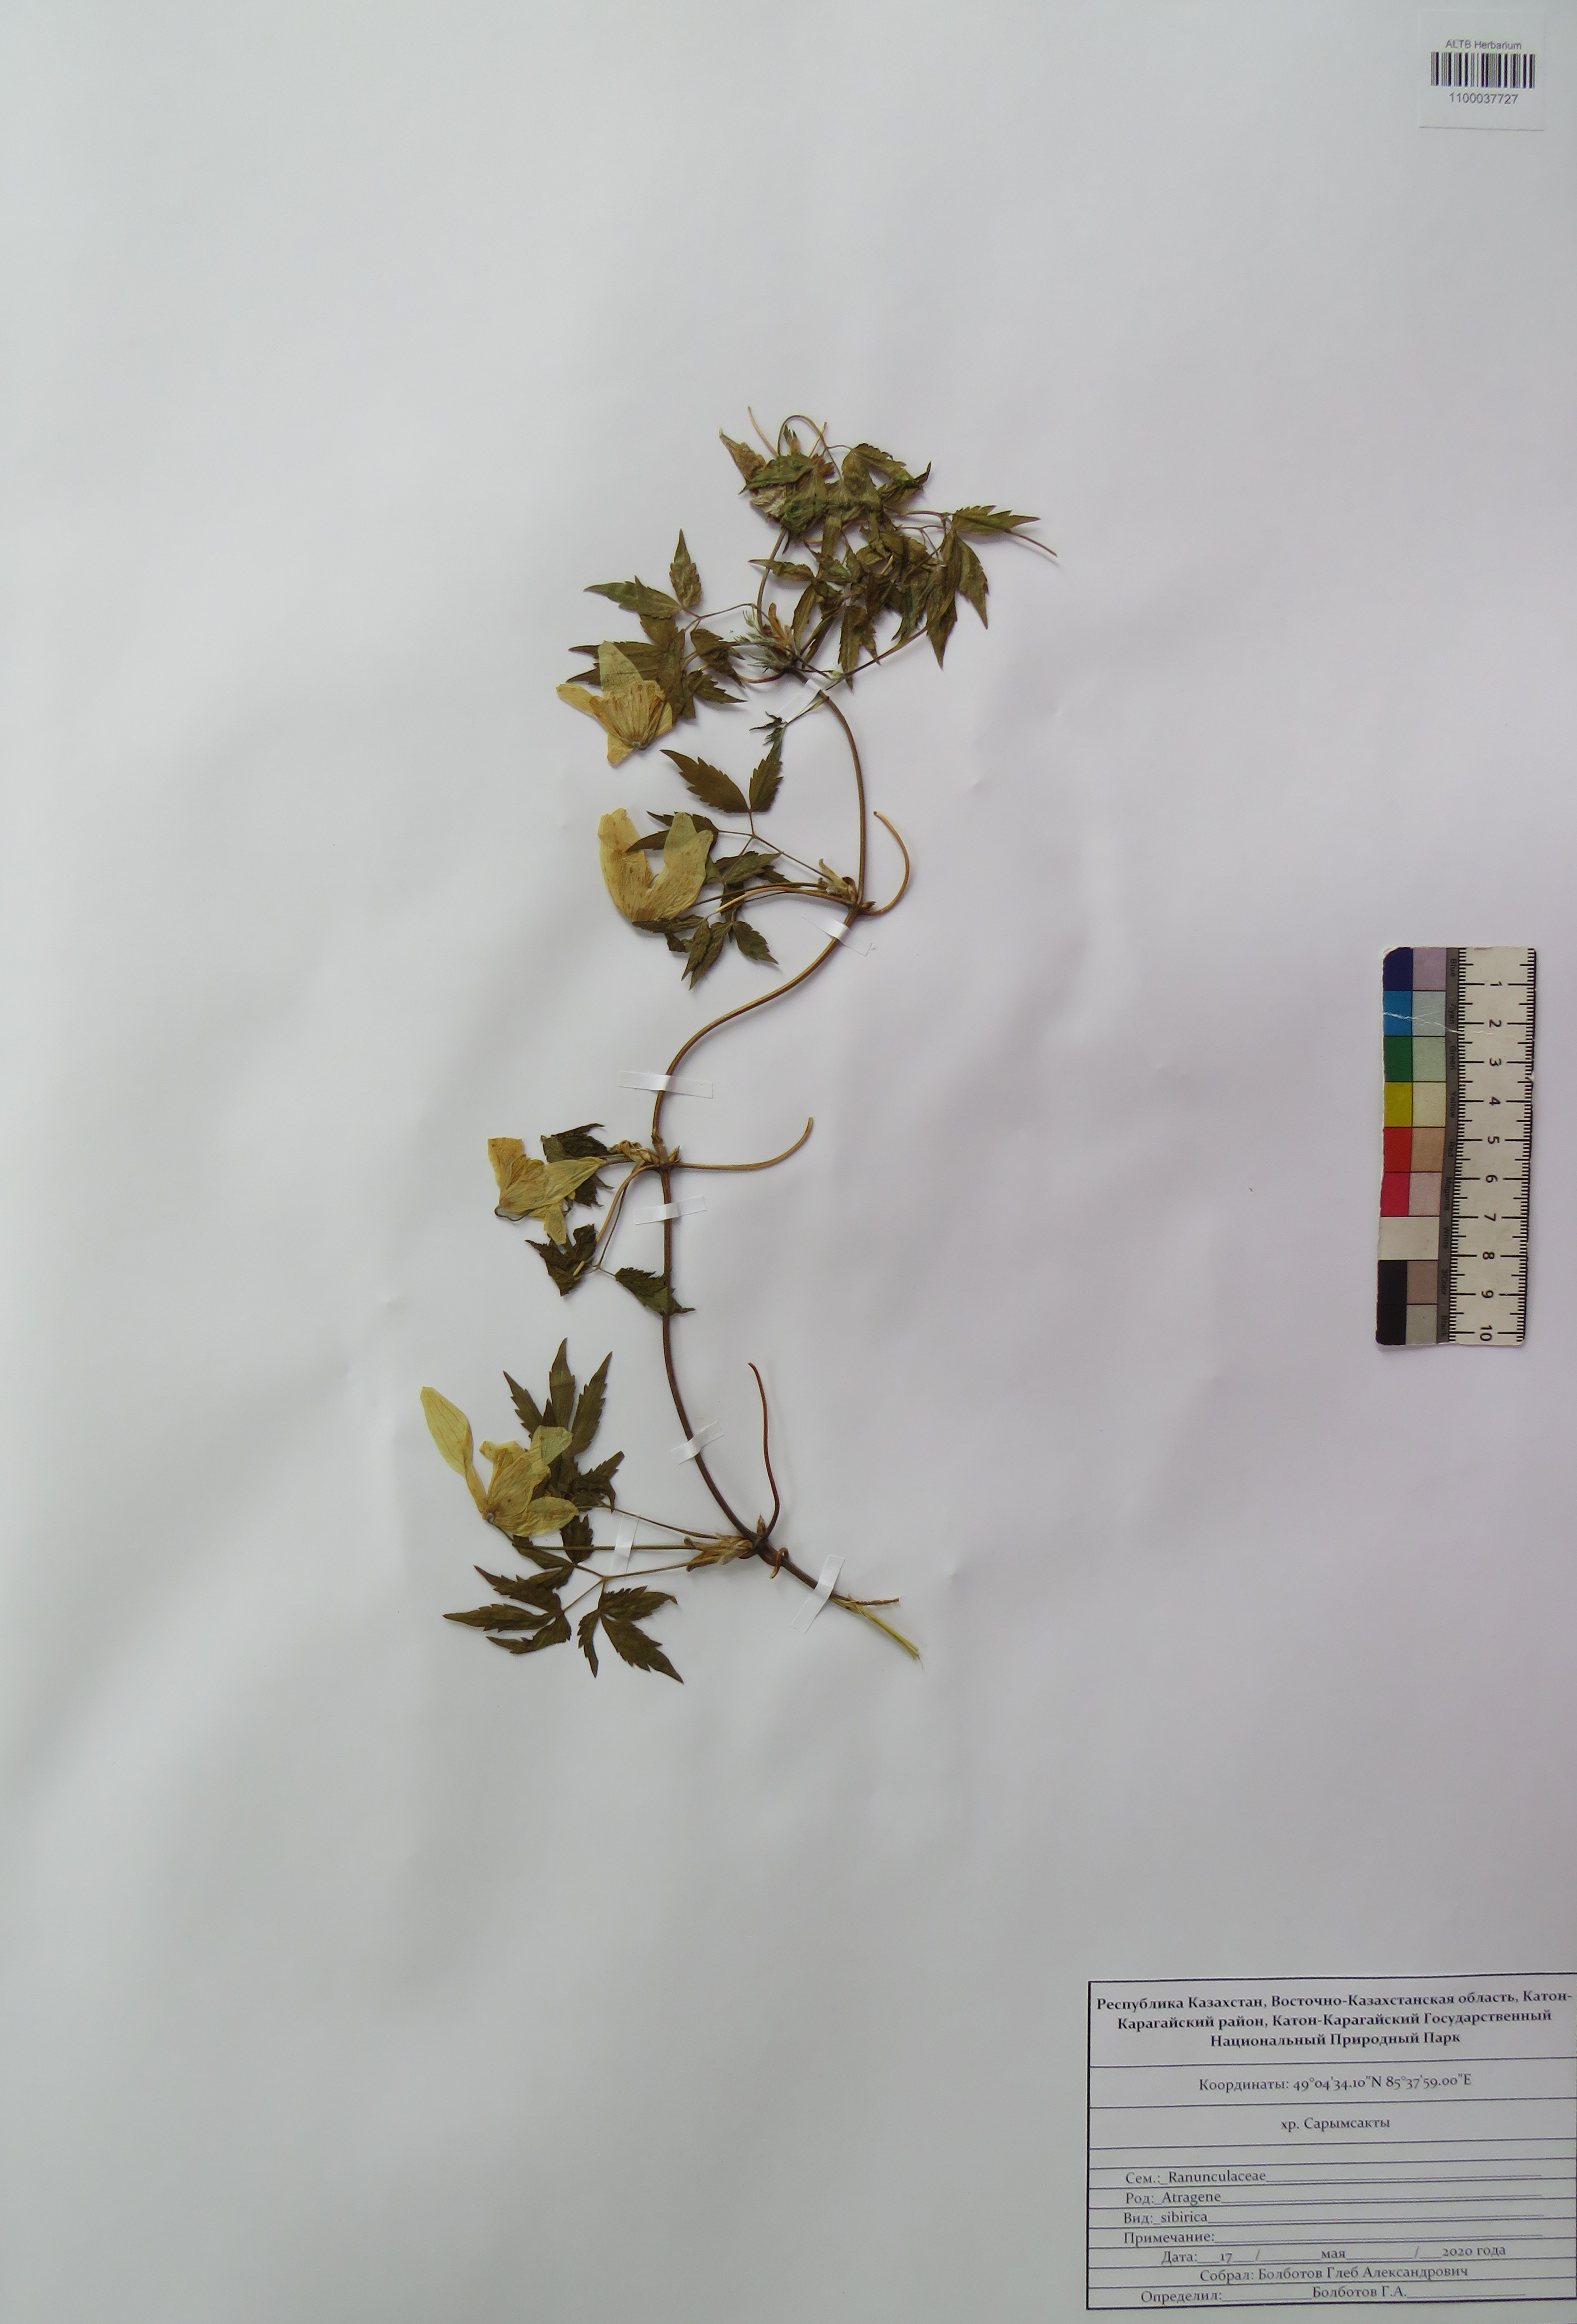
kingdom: Plantae
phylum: Tracheophyta
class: Magnoliopsida
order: Ranunculales
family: Ranunculaceae
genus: Clematis
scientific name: Clematis sibirica
